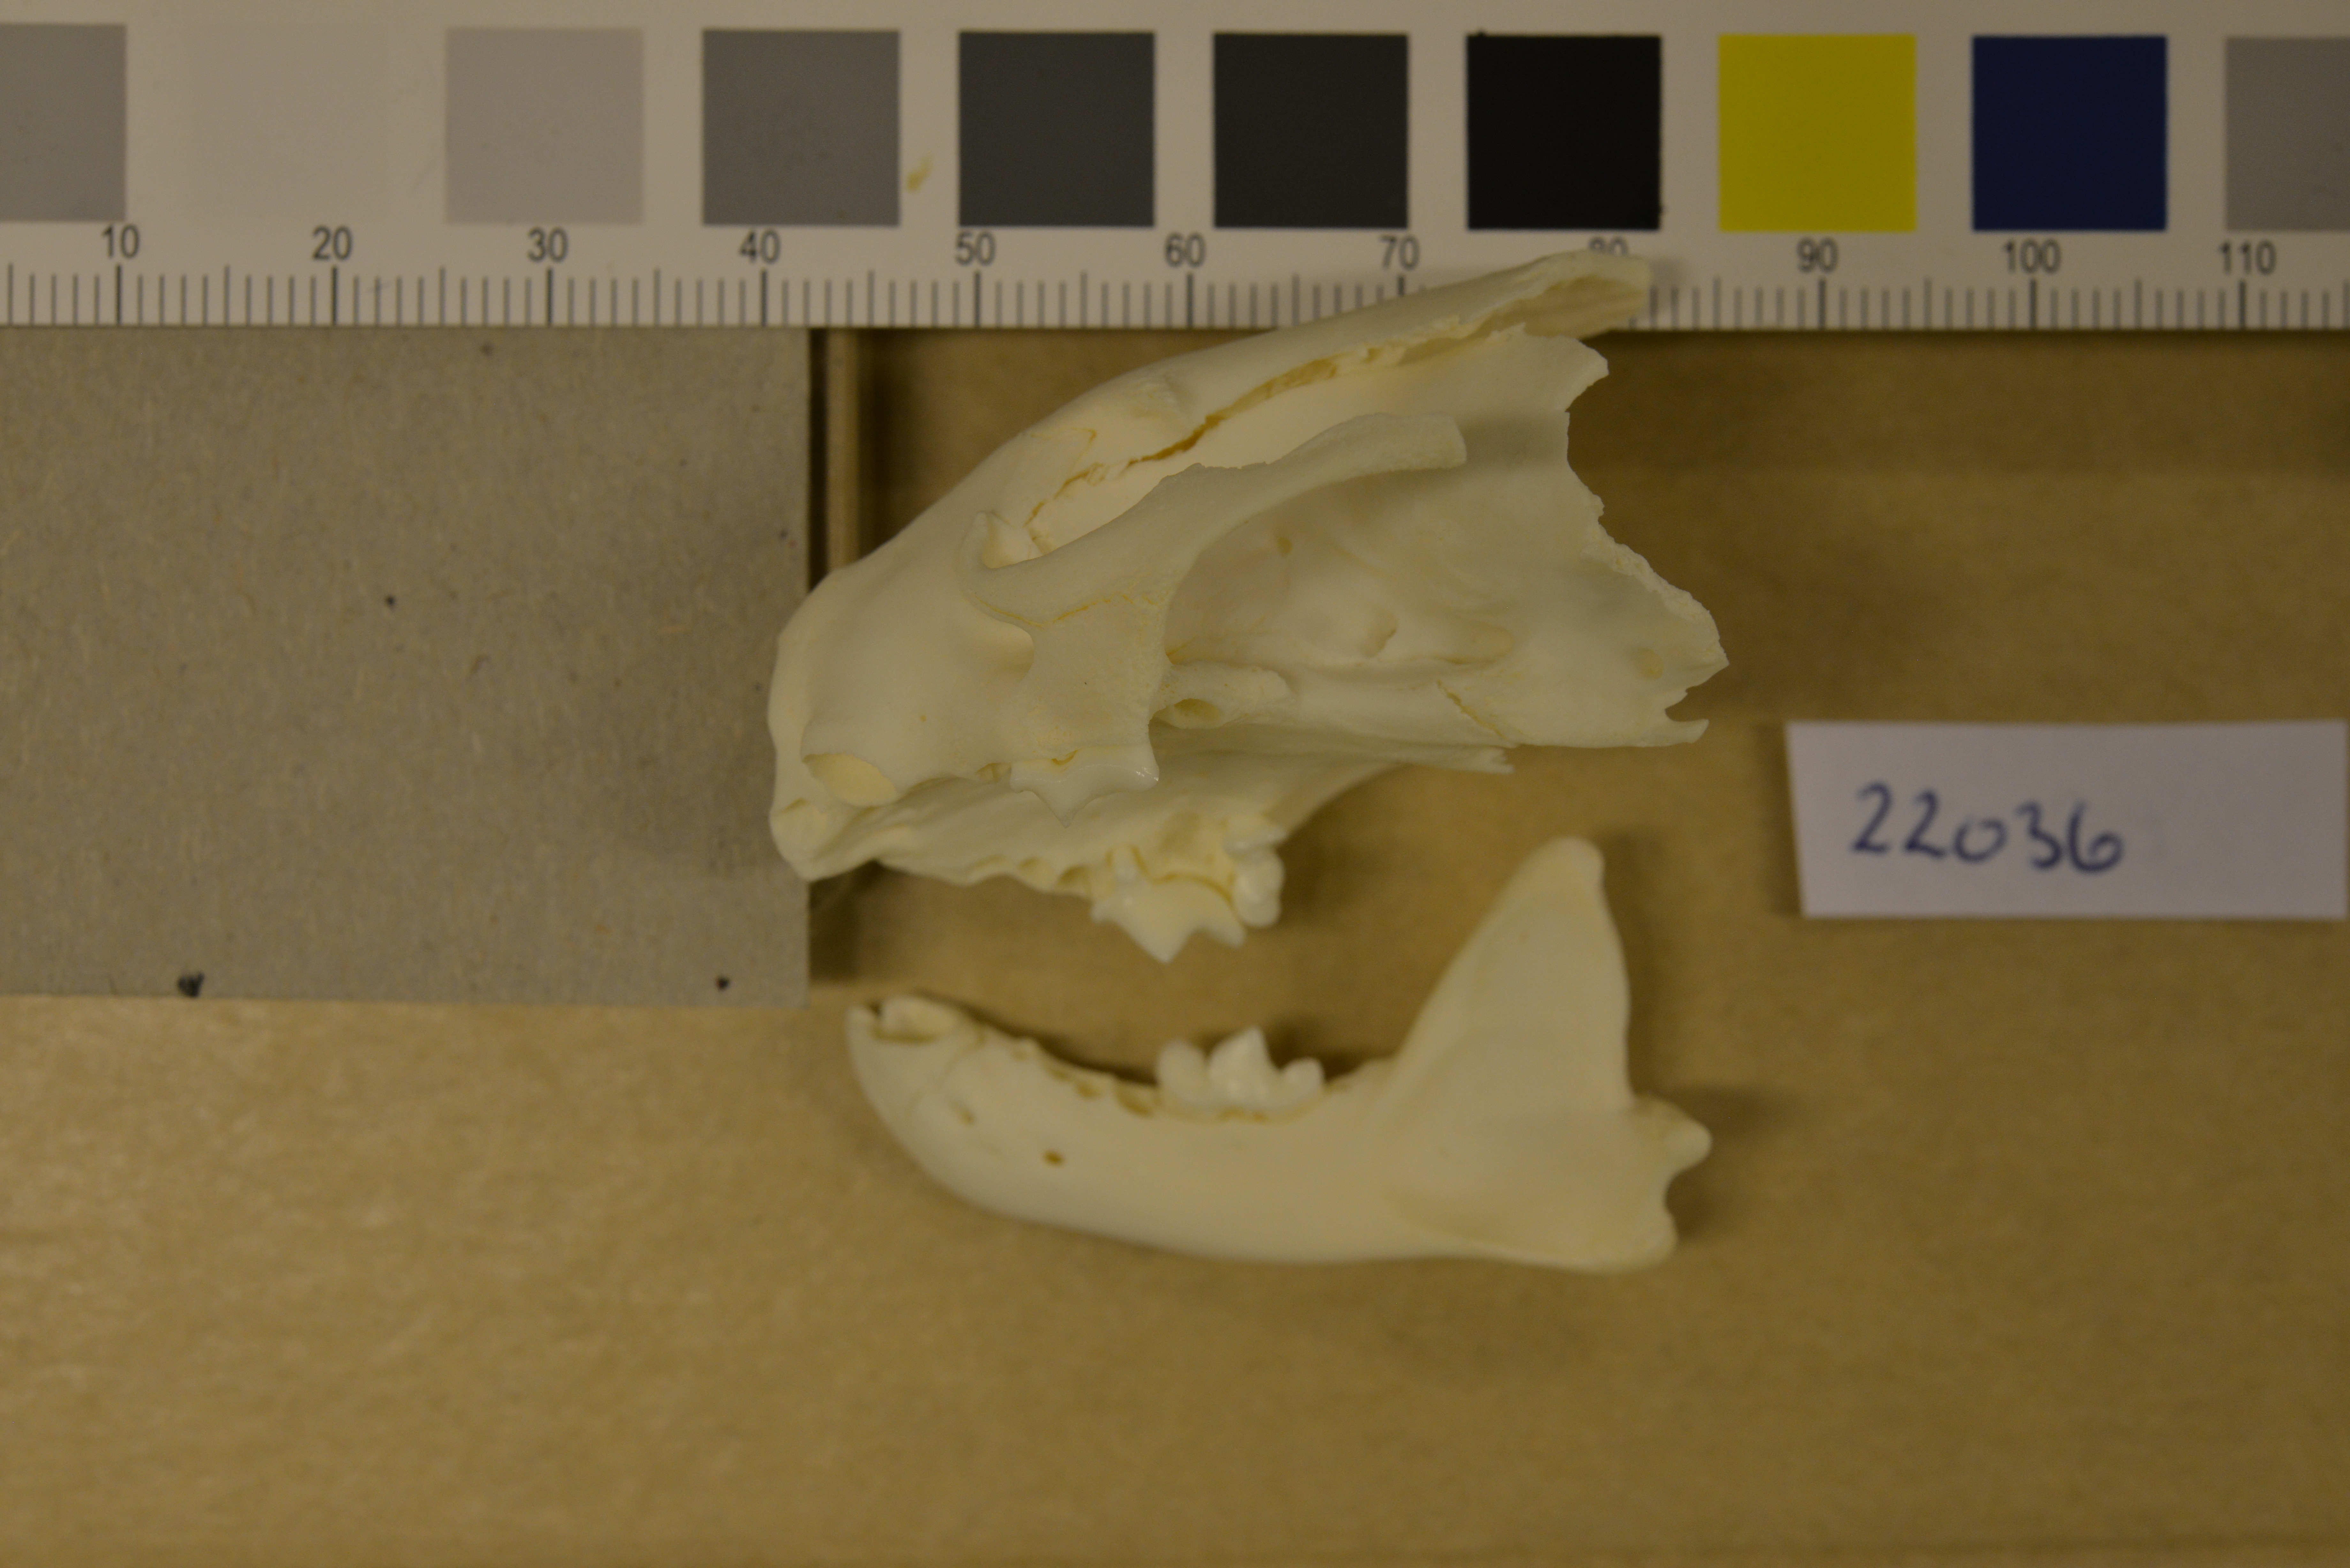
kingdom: Animalia
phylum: Chordata
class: Mammalia
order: Carnivora
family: Mustelidae
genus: Mustela
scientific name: Mustela putorius
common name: European polecat
